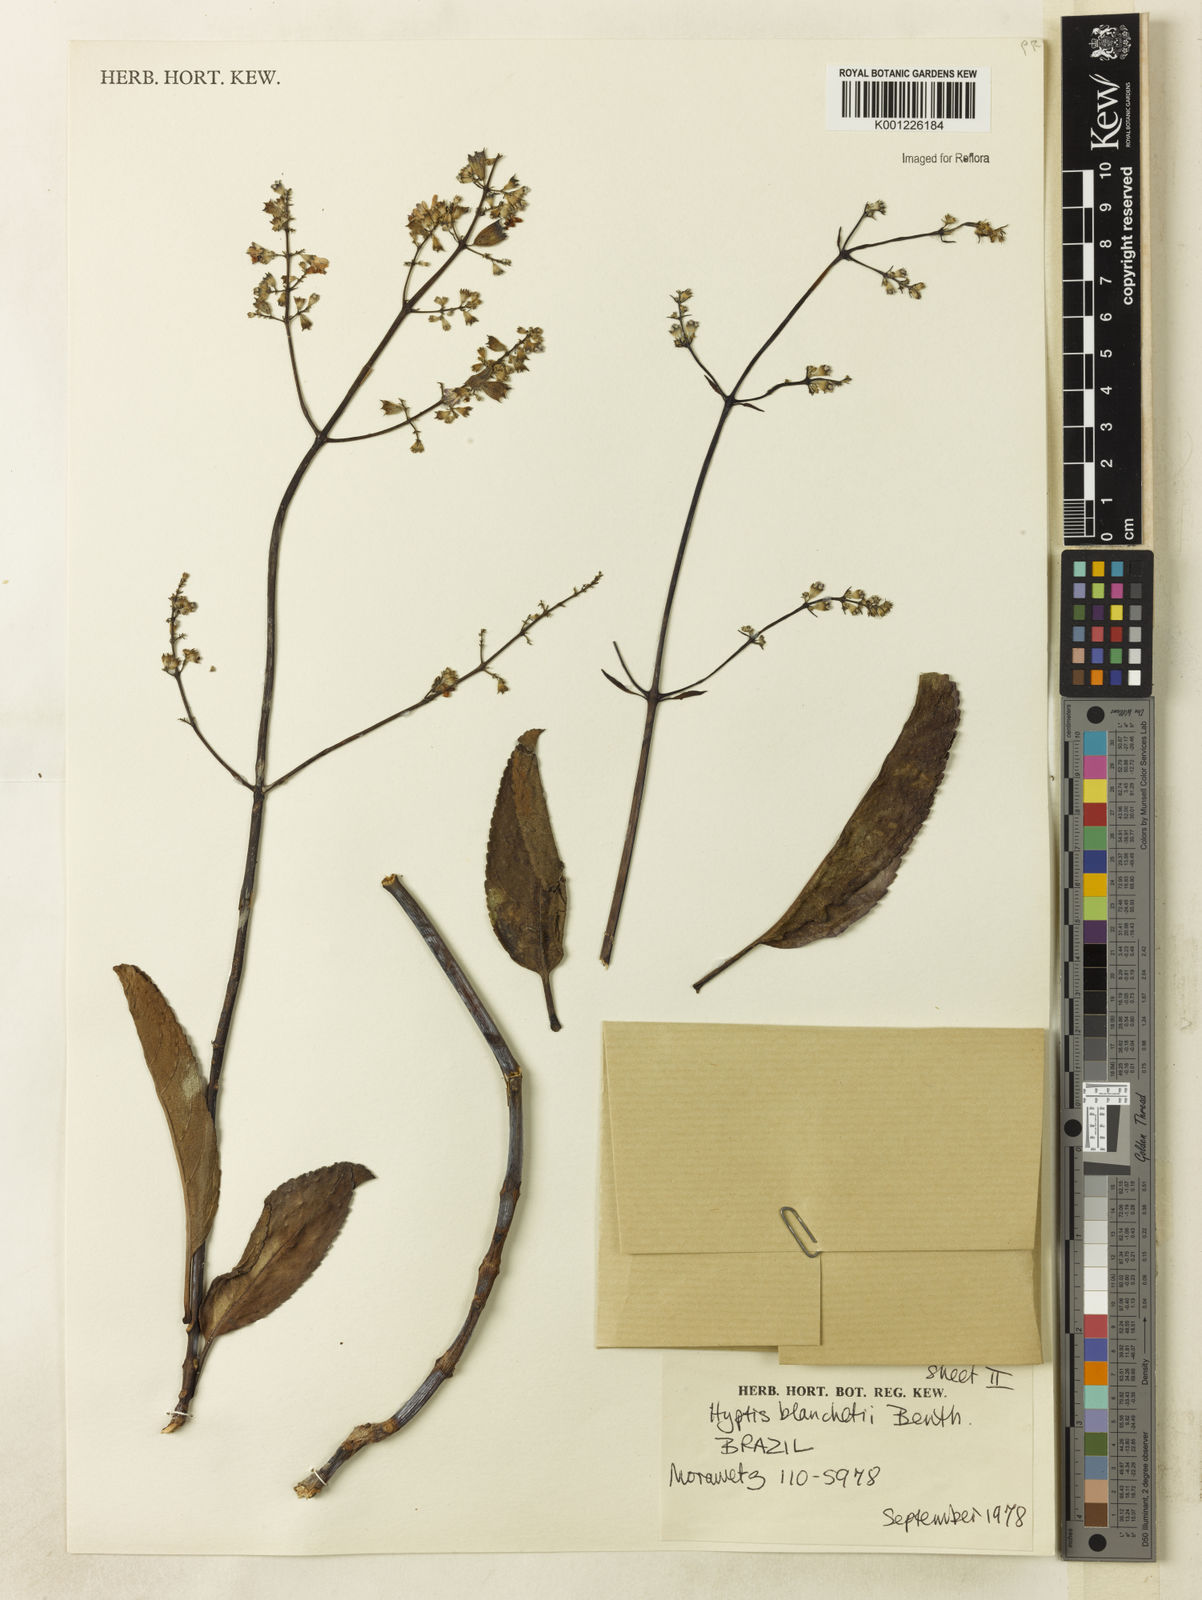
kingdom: Plantae
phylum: Tracheophyta
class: Magnoliopsida
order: Lamiales
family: Lamiaceae
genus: Eriope
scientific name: Eriope blanchetii
